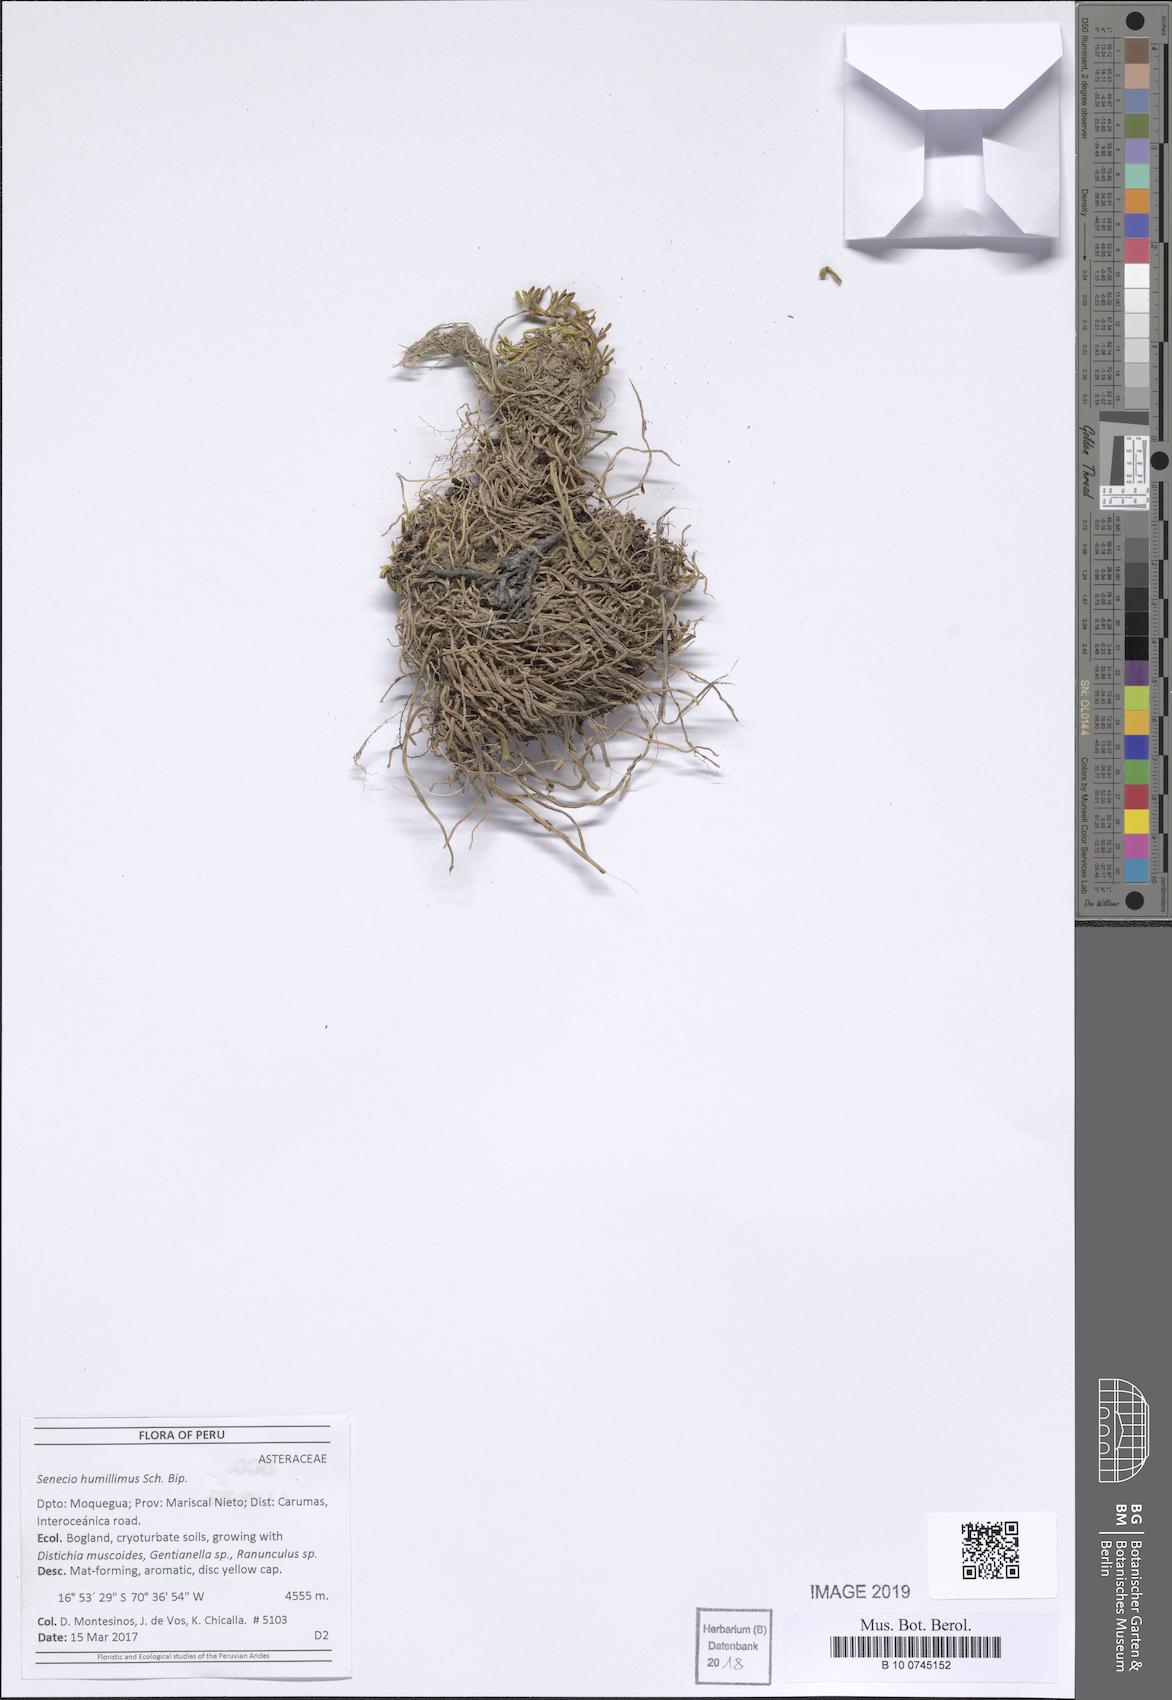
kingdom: Plantae
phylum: Tracheophyta
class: Magnoliopsida
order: Asterales
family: Asteraceae
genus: Senecio
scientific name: Senecio humillimus
